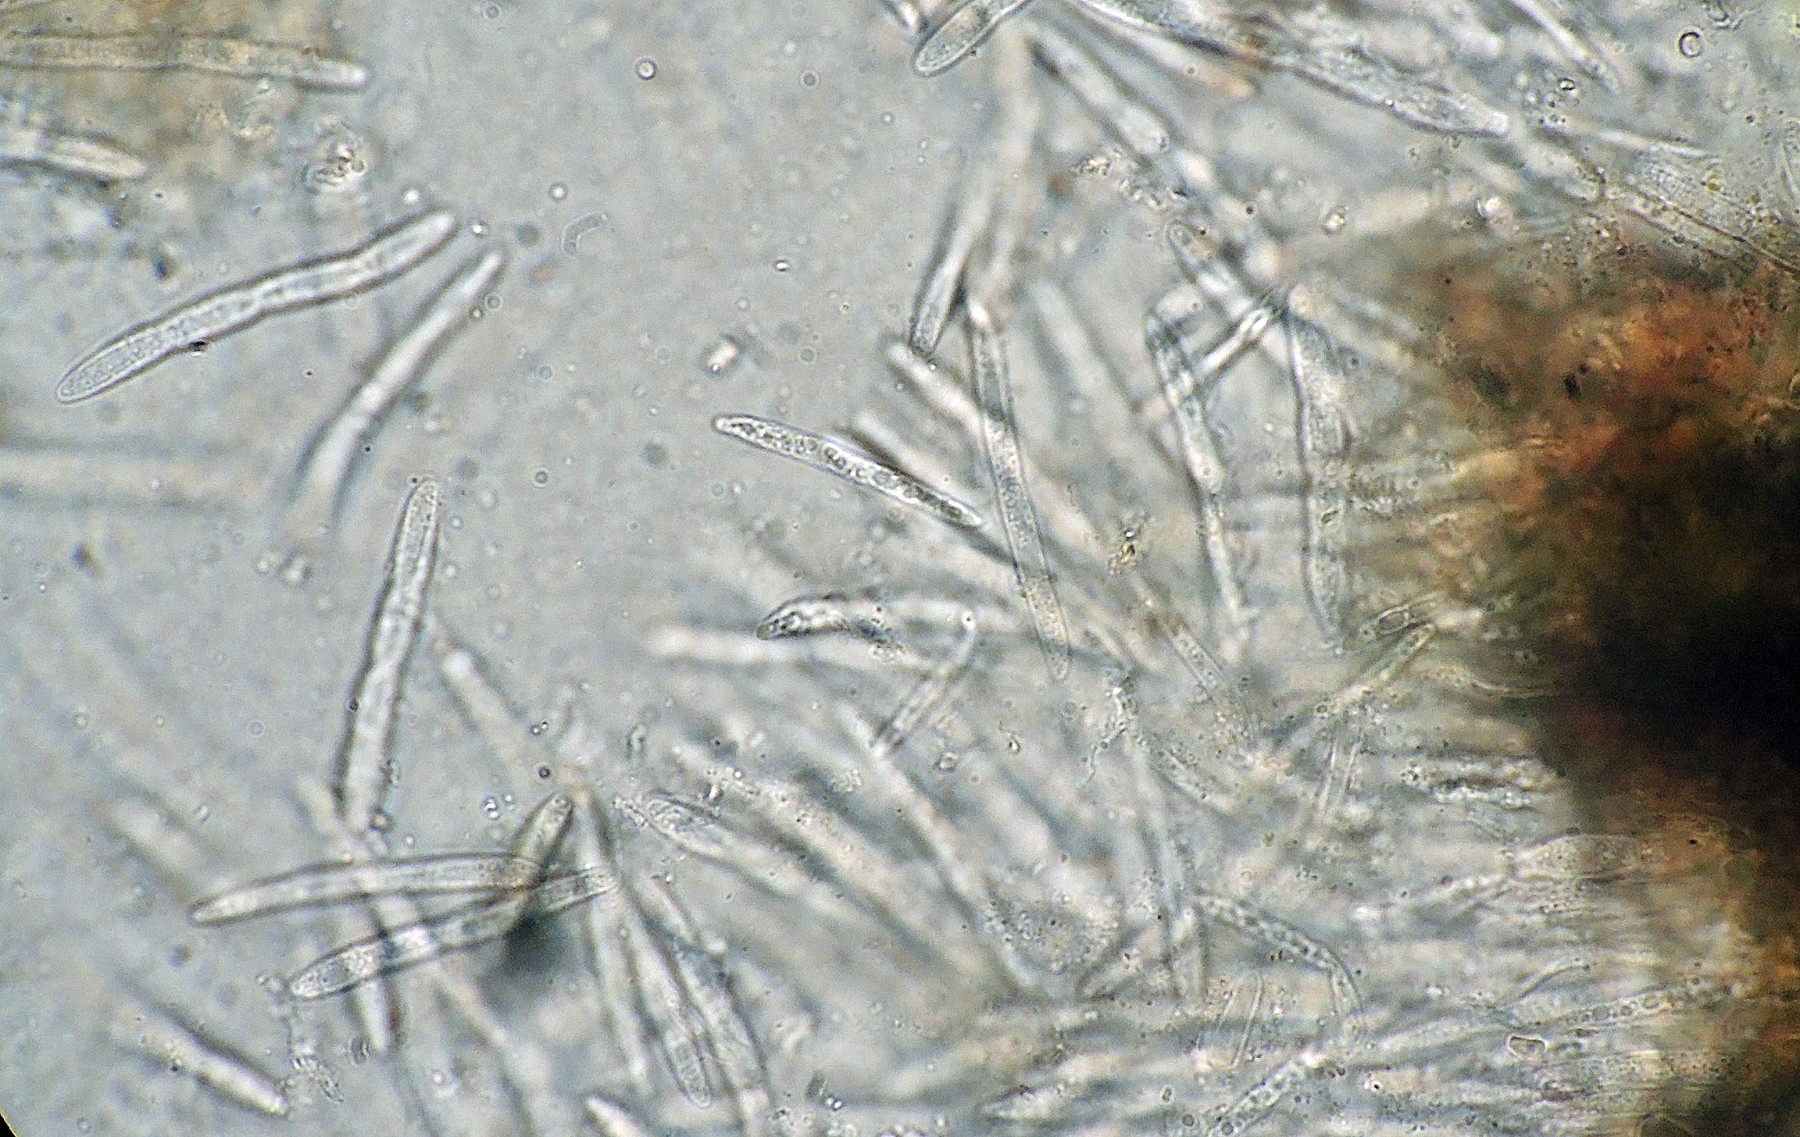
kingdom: Fungi
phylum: Ascomycota
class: Dothideomycetes
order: Mycosphaerellales
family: Mycosphaerellaceae
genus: Phloeospora
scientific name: Phloeospora aceris
